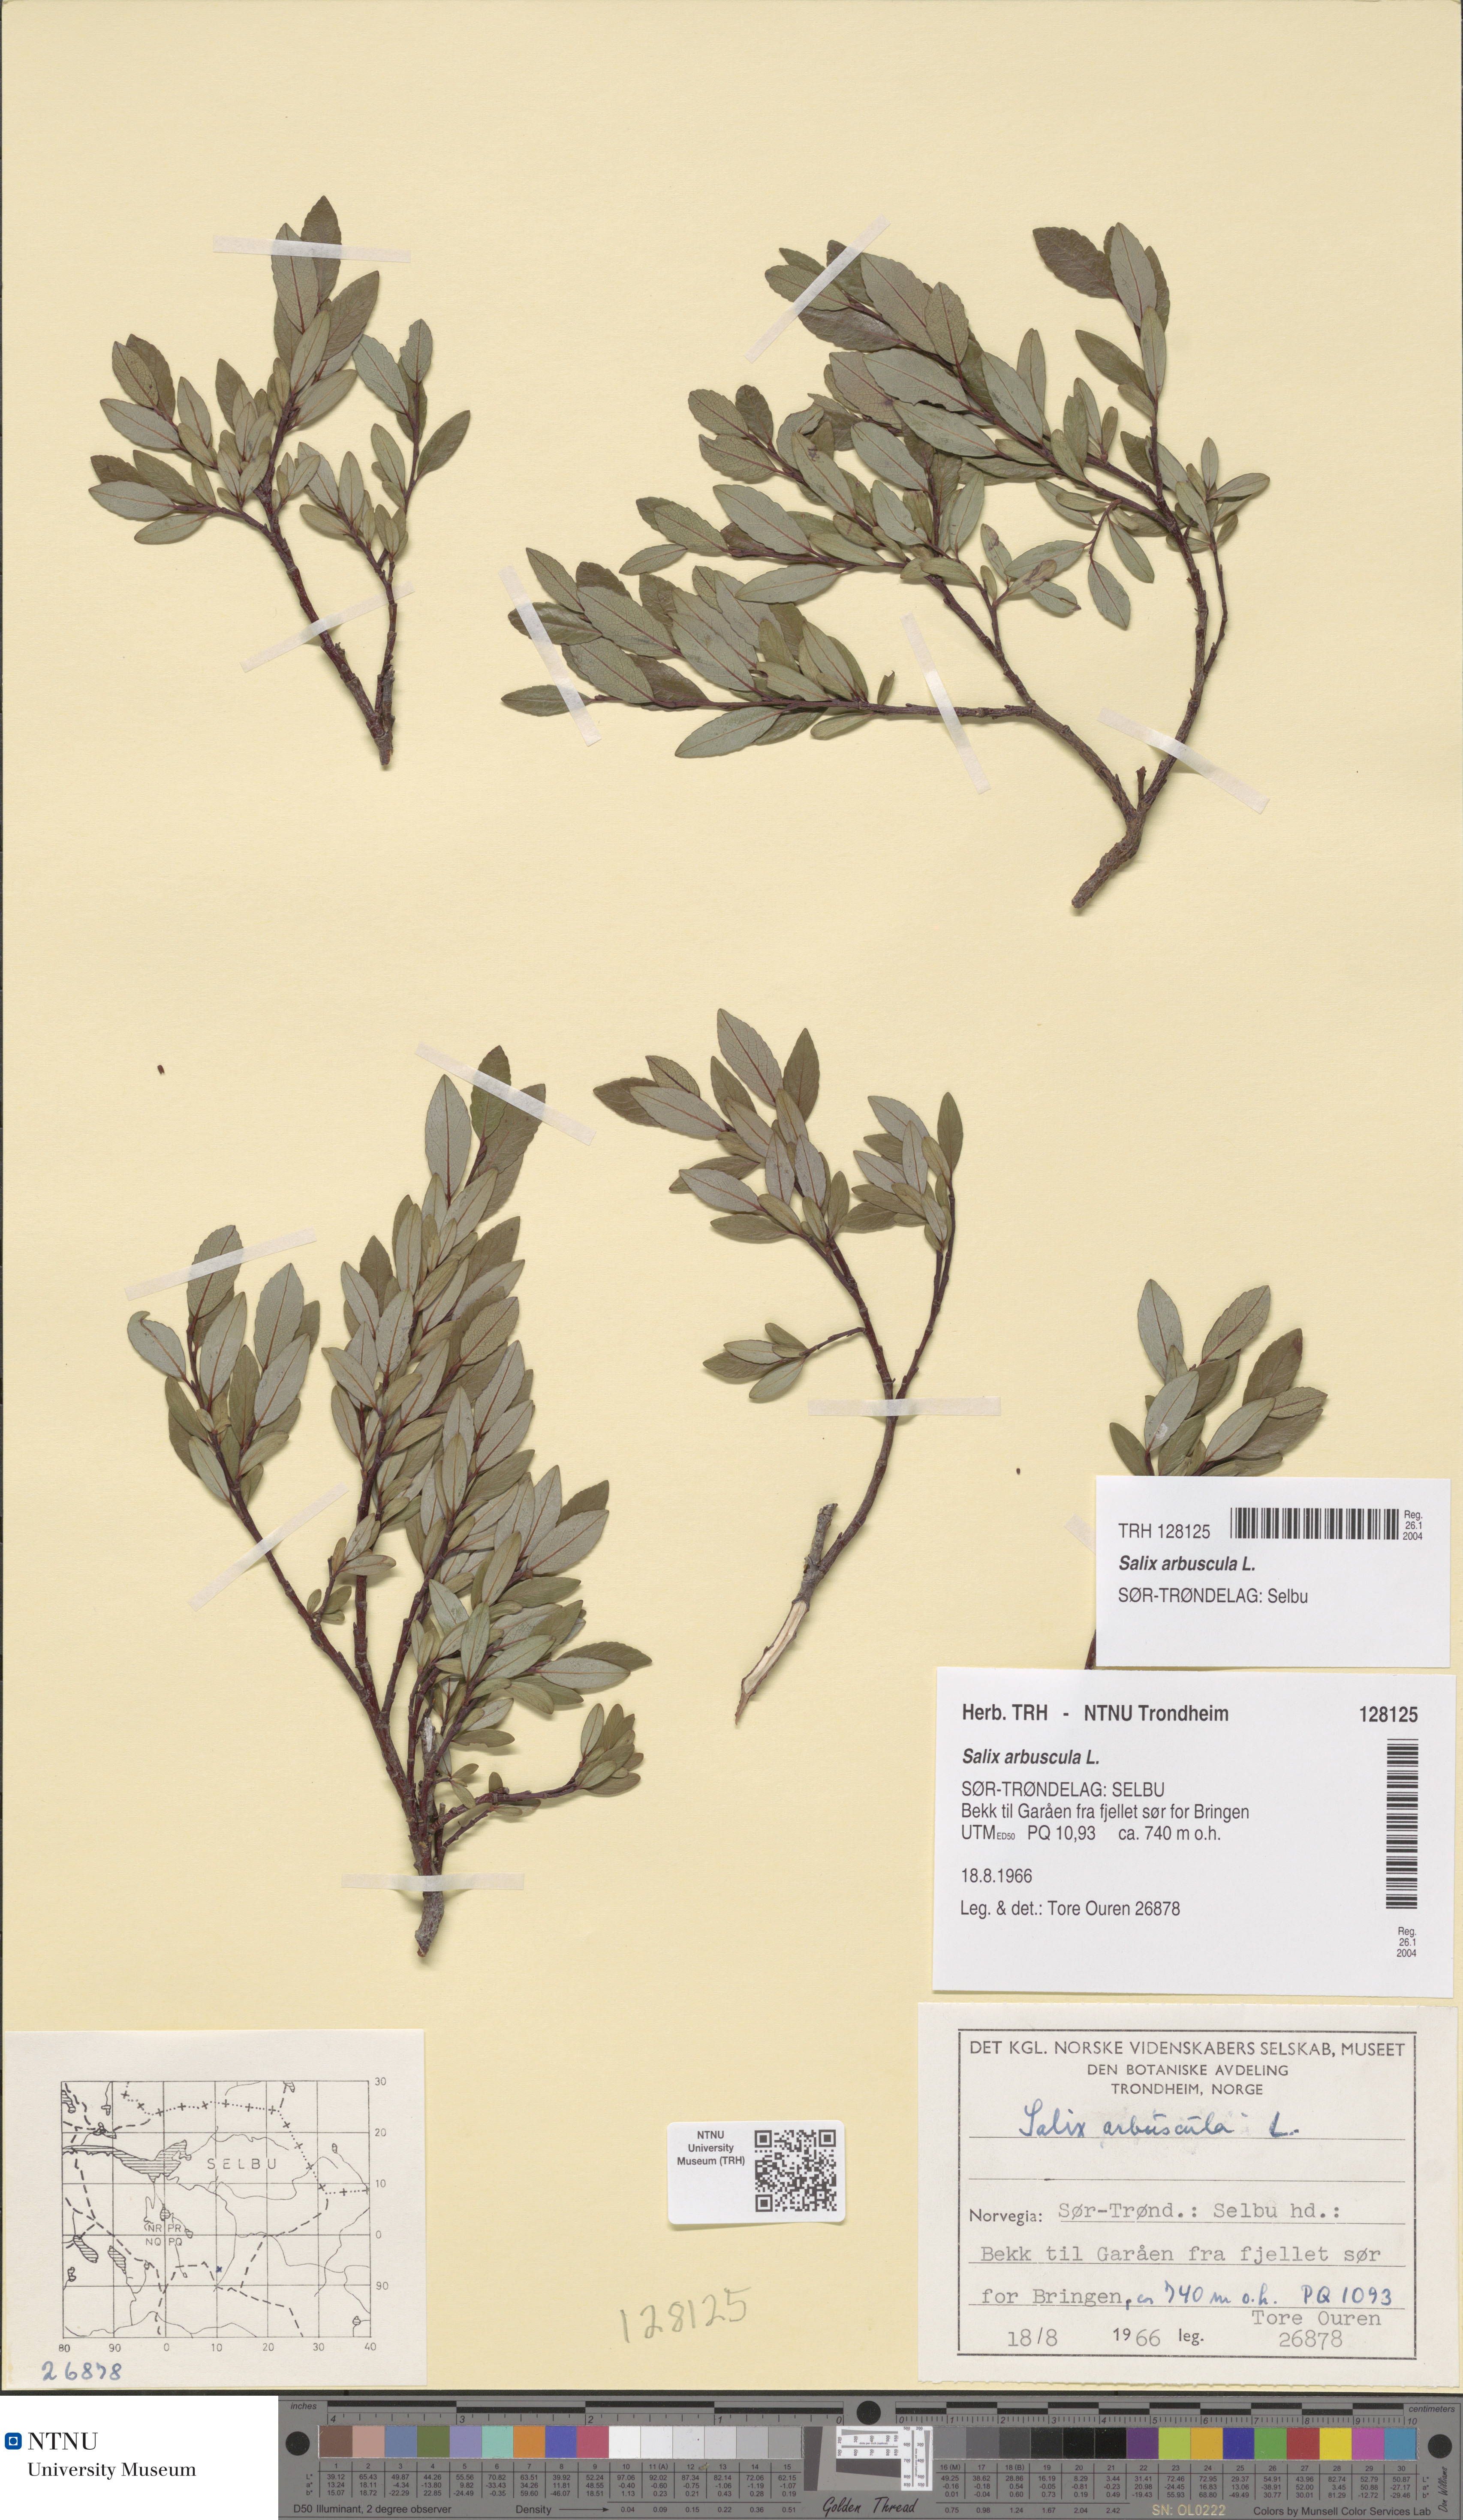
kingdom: Plantae
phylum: Tracheophyta
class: Magnoliopsida
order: Malpighiales
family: Salicaceae
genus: Salix
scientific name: Salix arbuscula
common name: Mountain willow
